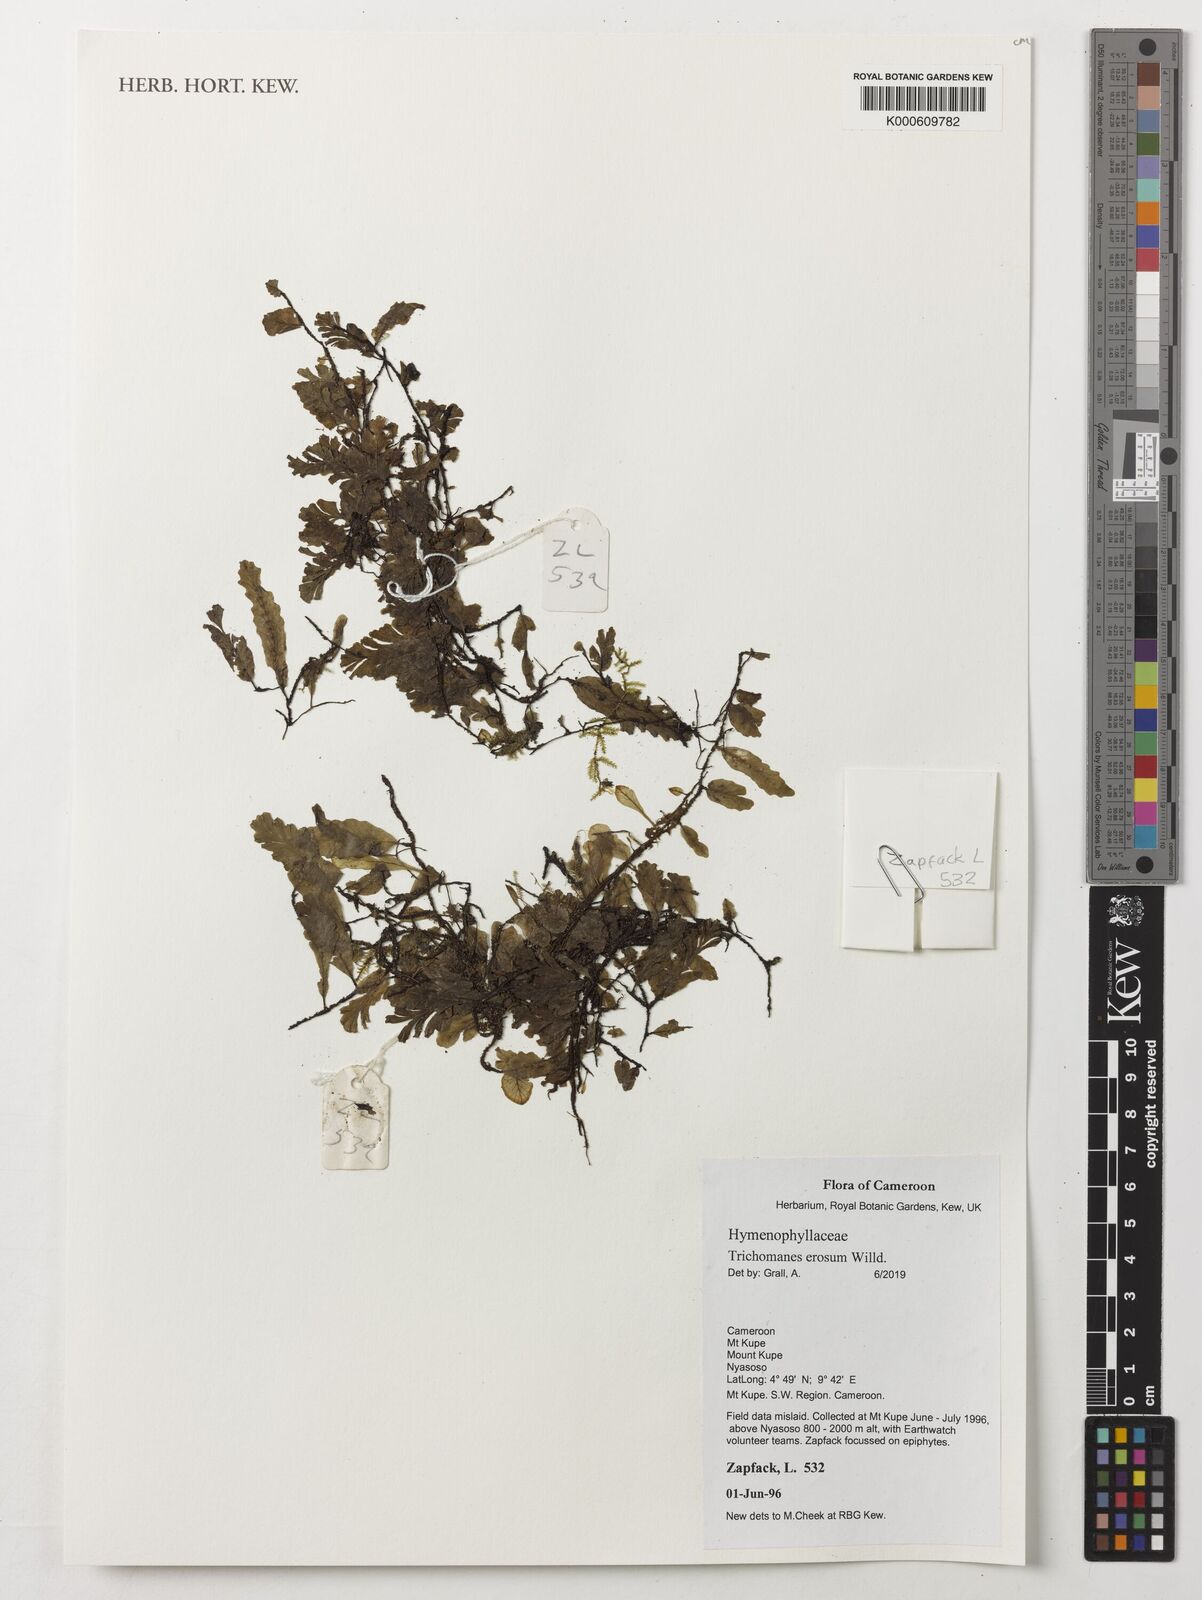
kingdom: Plantae
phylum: Tracheophyta
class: Polypodiopsida
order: Hymenophyllales
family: Hymenophyllaceae
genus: Didymoglossum
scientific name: Didymoglossum erosum
